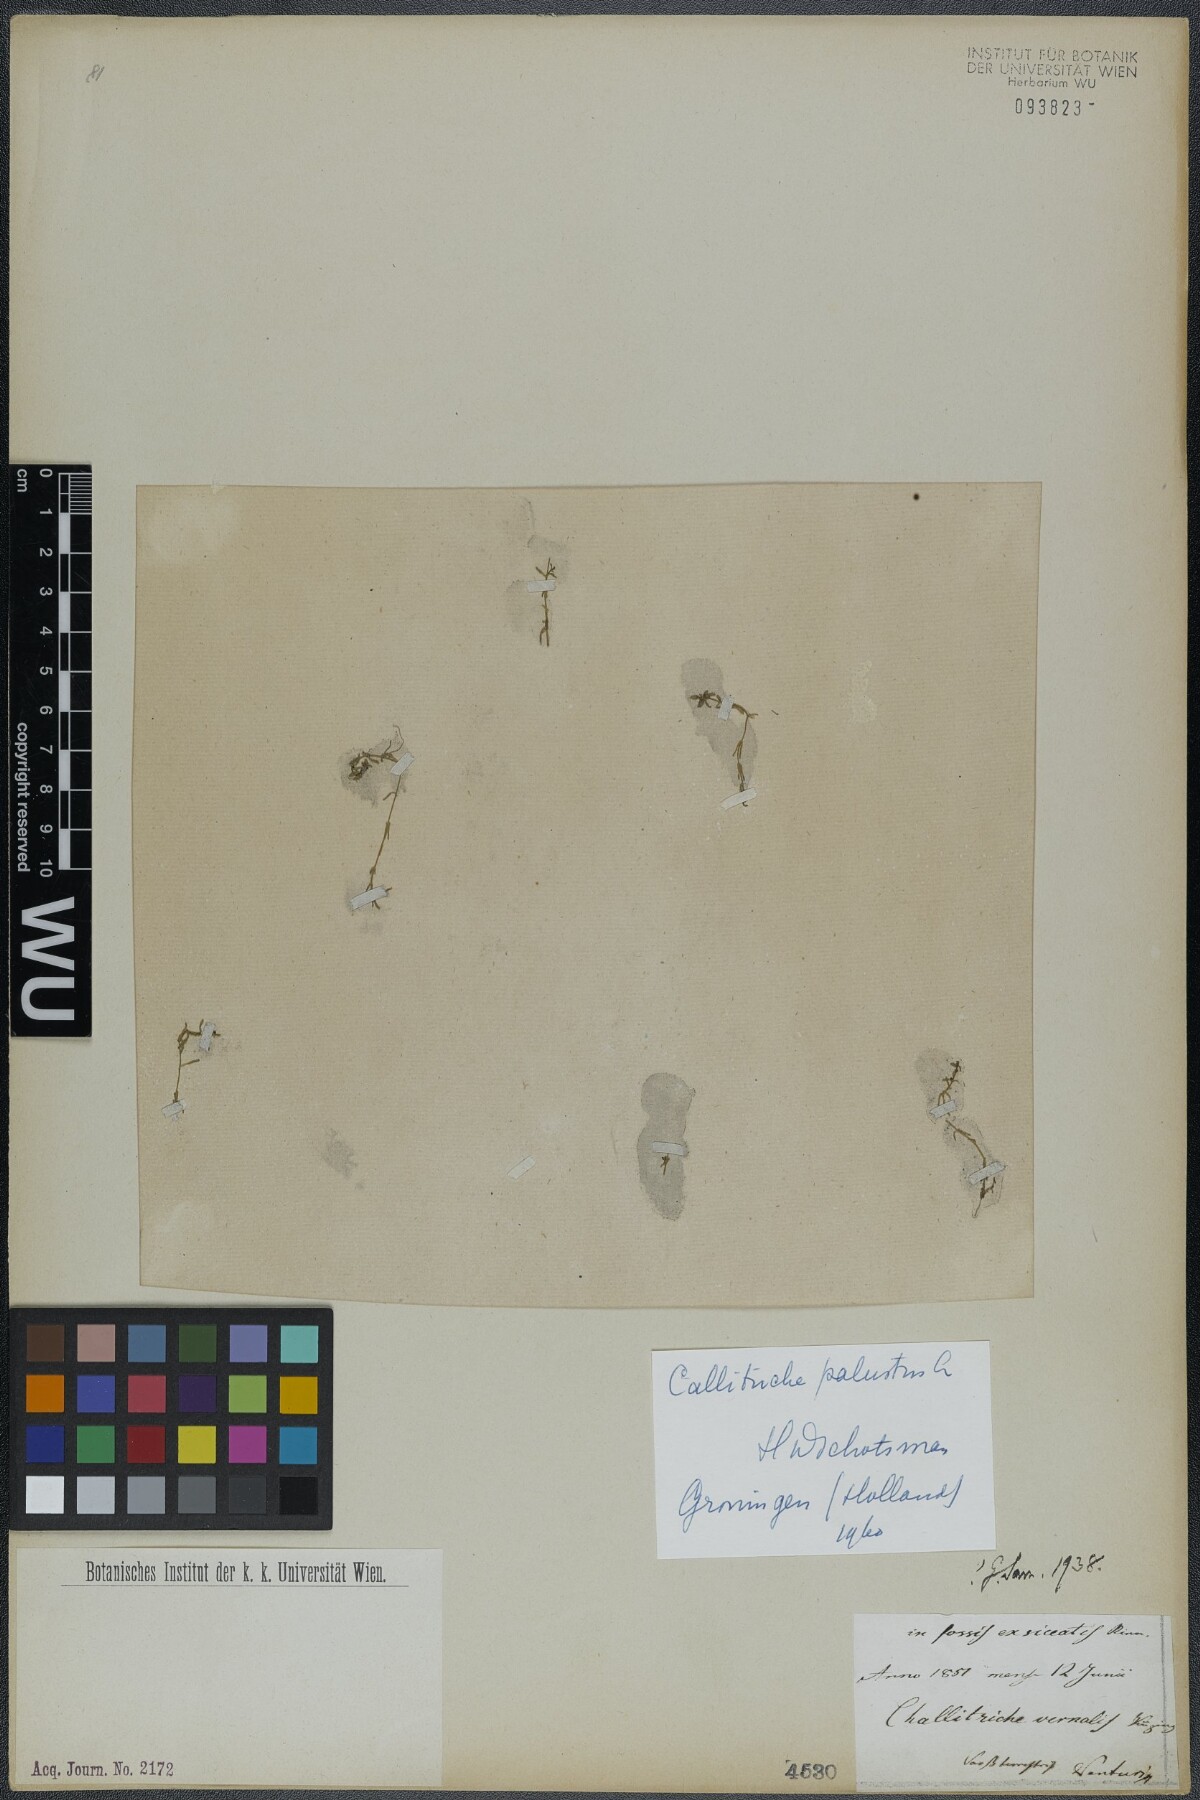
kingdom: Plantae
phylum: Tracheophyta
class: Magnoliopsida
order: Lamiales
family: Plantaginaceae
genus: Callitriche
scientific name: Callitriche palustris
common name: Spring water-starwort
